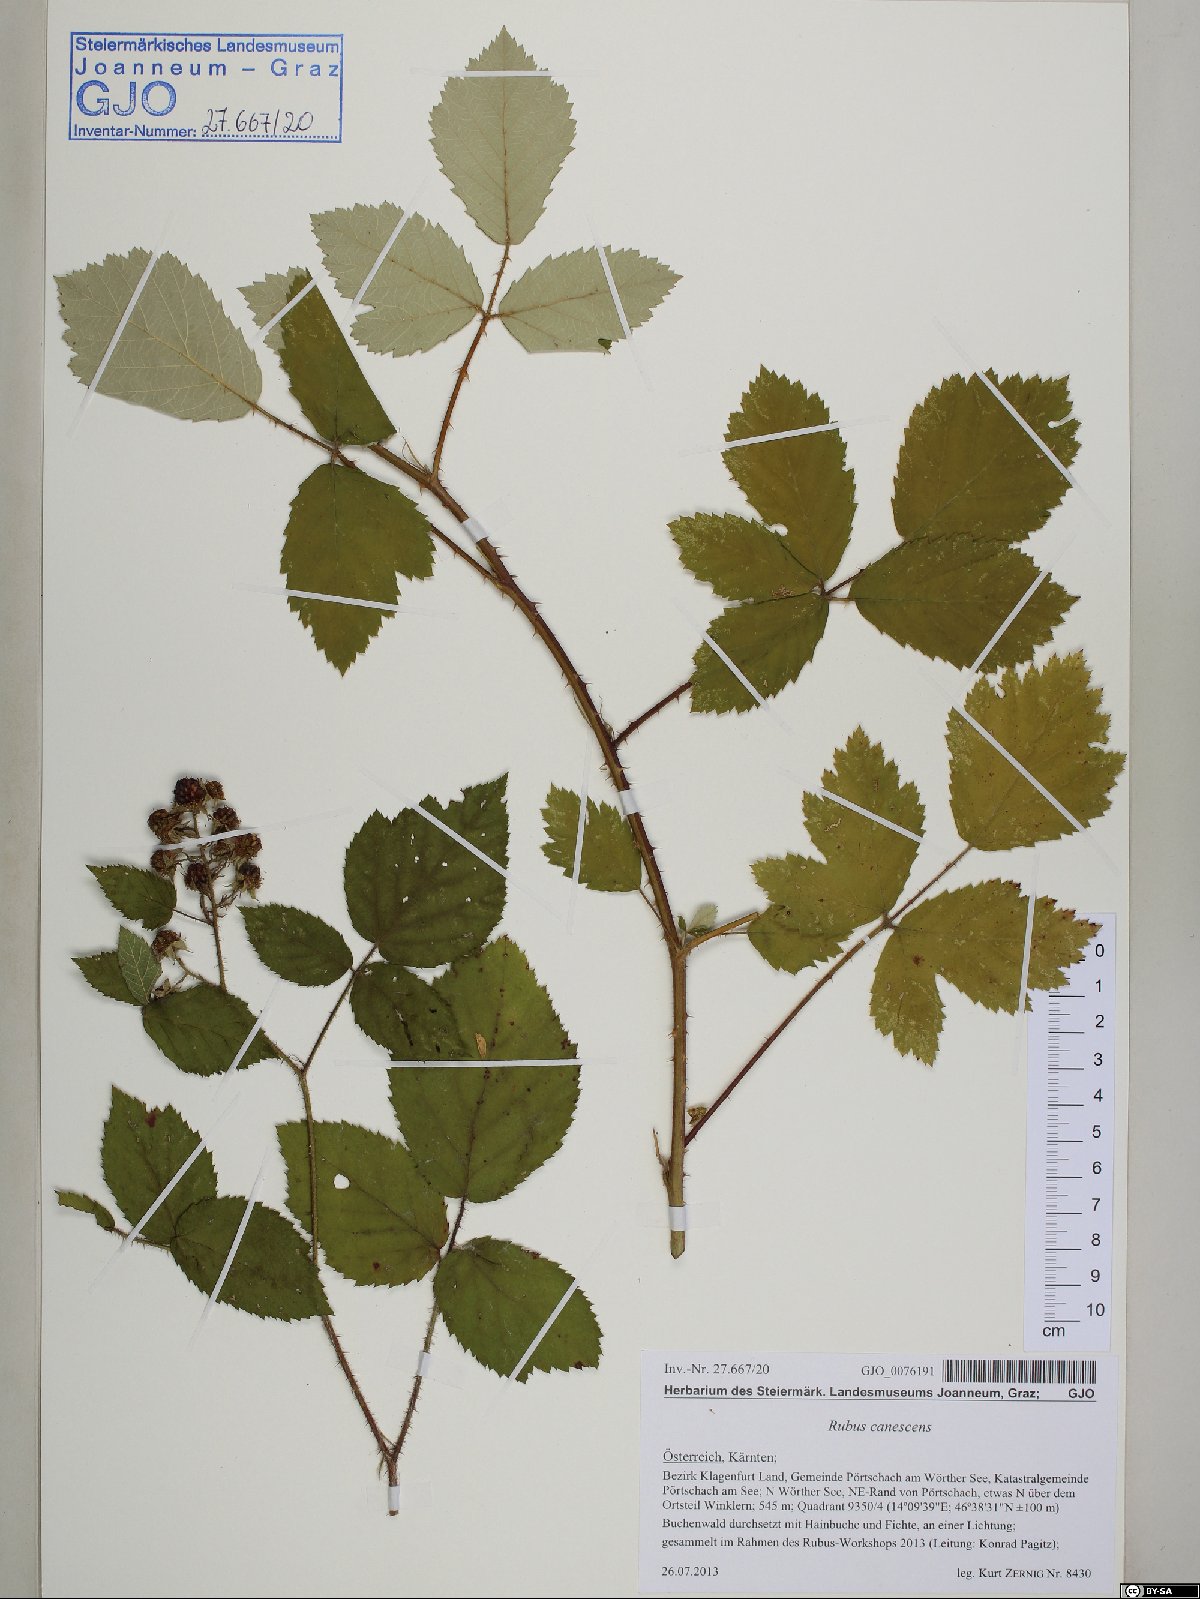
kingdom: Plantae
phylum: Tracheophyta
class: Magnoliopsida
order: Rosales
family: Rosaceae
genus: Rubus
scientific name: Rubus canescens
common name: Wooly blackberry
